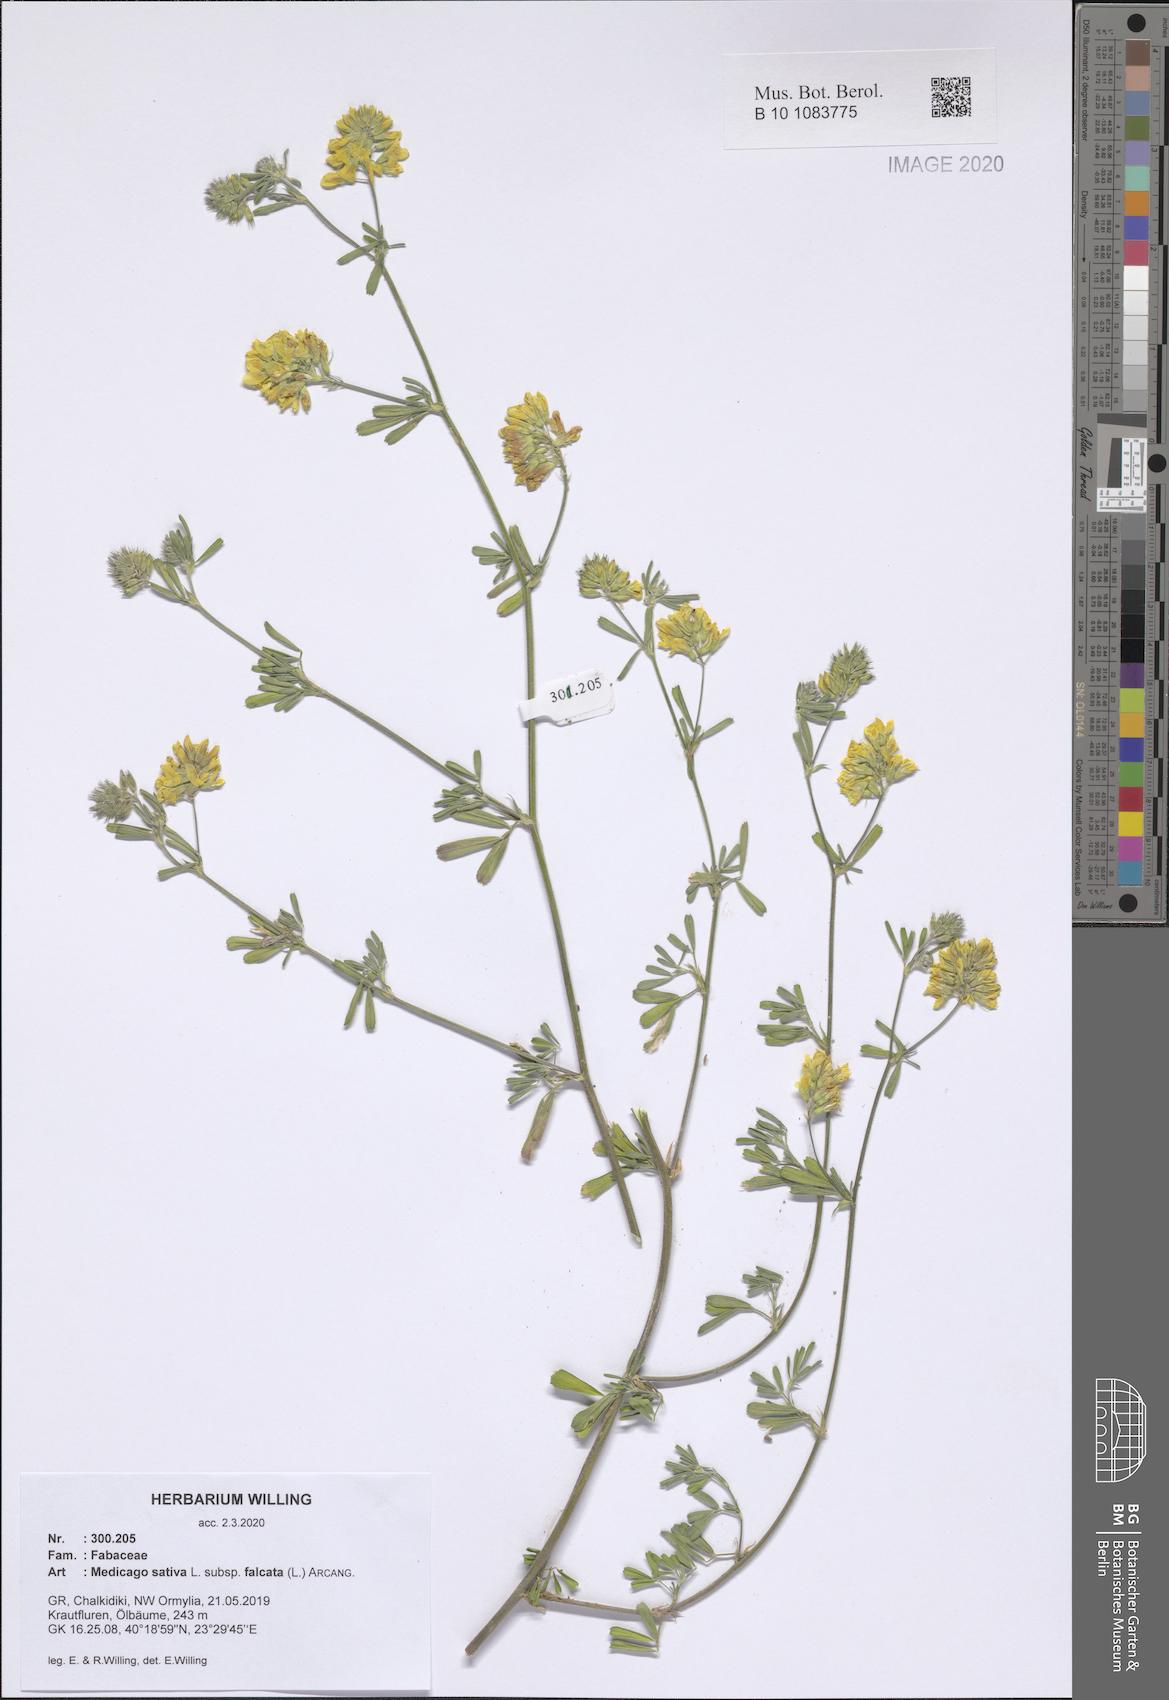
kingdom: Plantae
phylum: Tracheophyta
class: Magnoliopsida
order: Fabales
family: Fabaceae
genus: Medicago
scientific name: Medicago falcata
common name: Sickle medick
